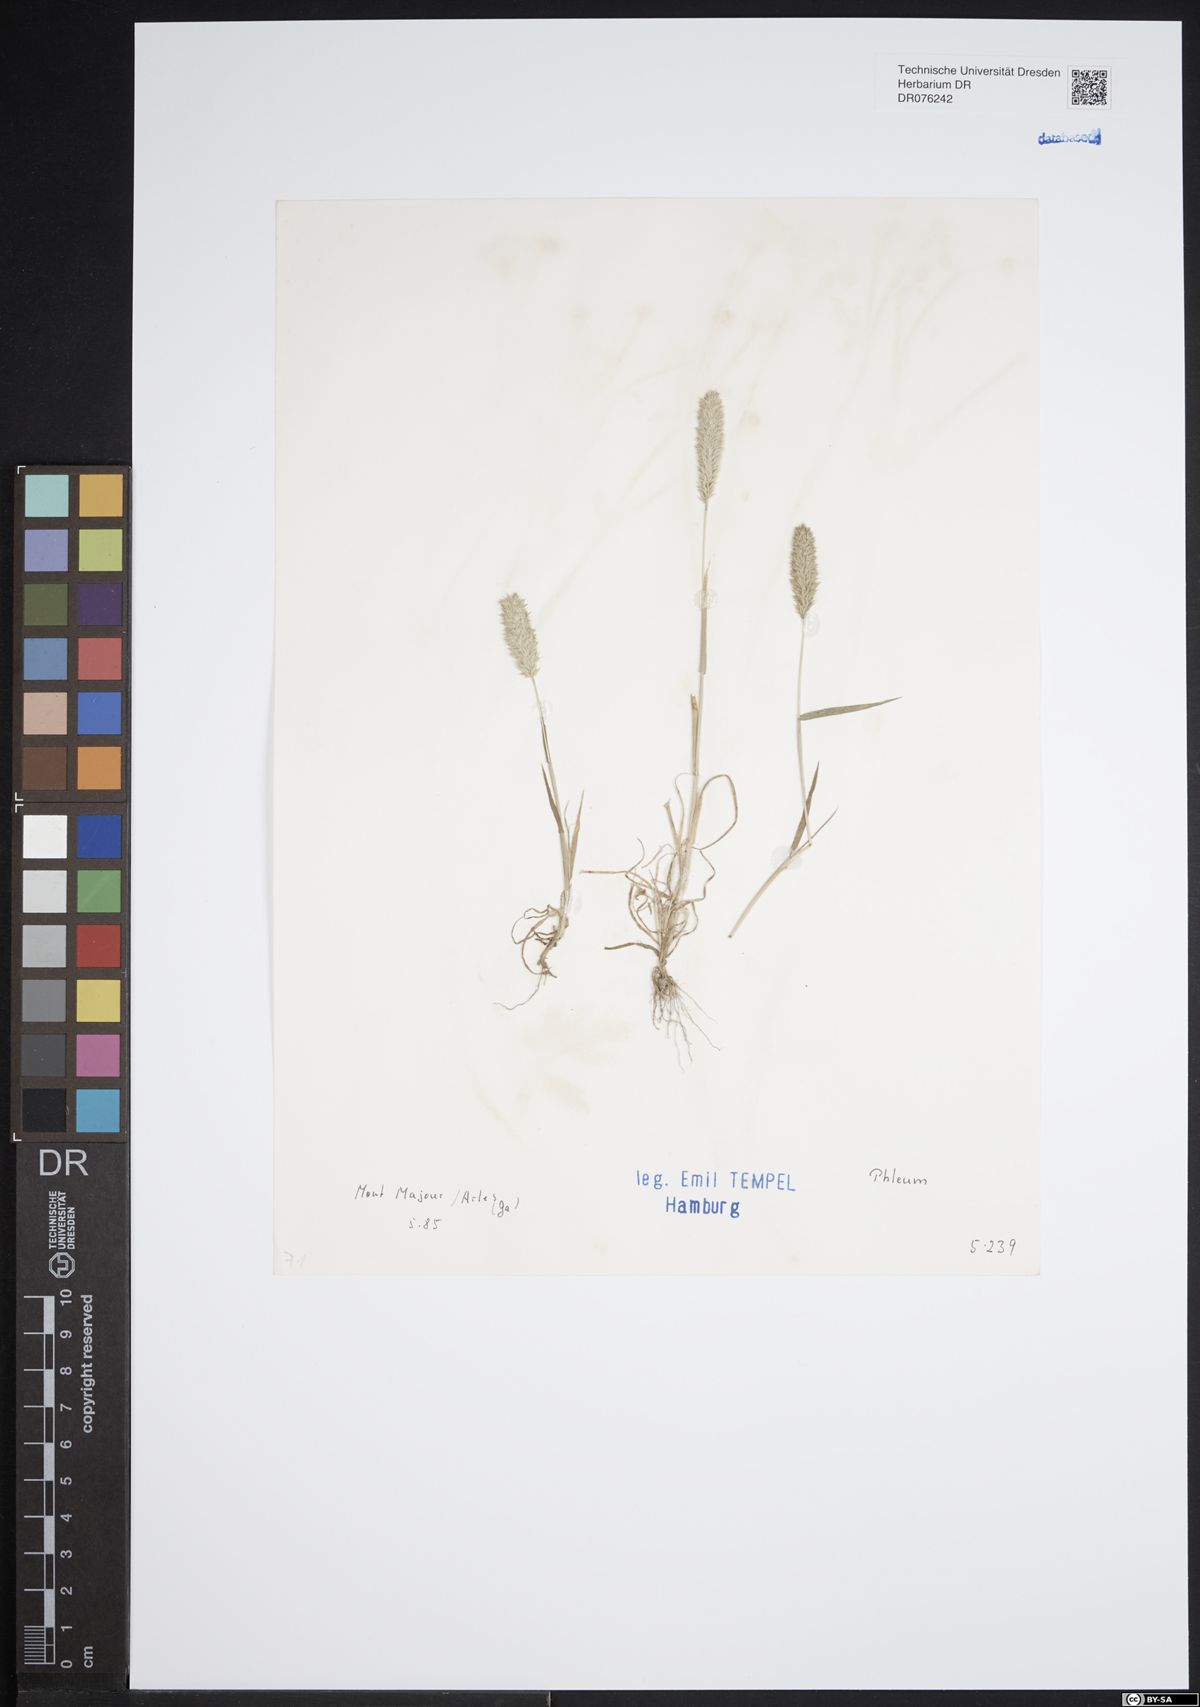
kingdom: Plantae
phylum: Tracheophyta
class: Liliopsida
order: Poales
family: Poaceae
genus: Phleum
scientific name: Phleum
